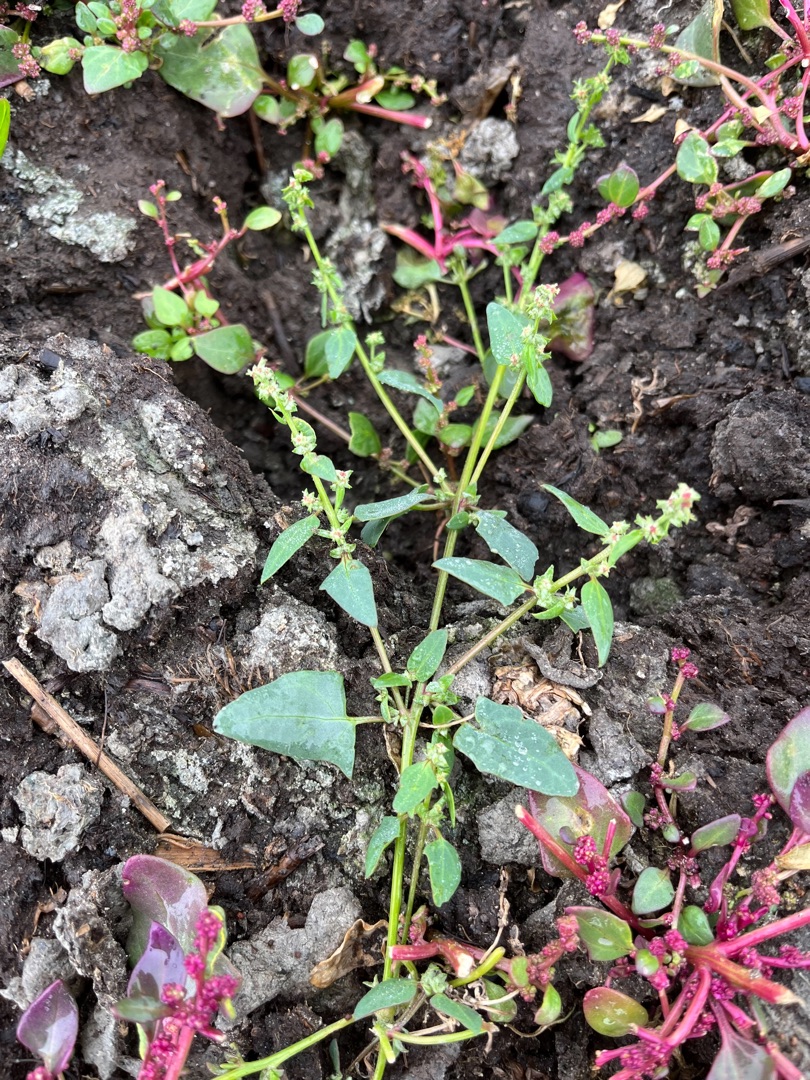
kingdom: Plantae
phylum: Tracheophyta
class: Magnoliopsida
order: Caryophyllales
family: Amaranthaceae
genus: Atriplex
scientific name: Atriplex prostrata
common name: Spyd-mælde
